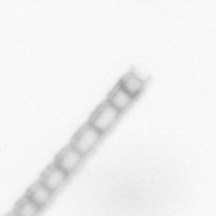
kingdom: Chromista
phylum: Ochrophyta
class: Bacillariophyceae
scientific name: Bacillariophyceae
